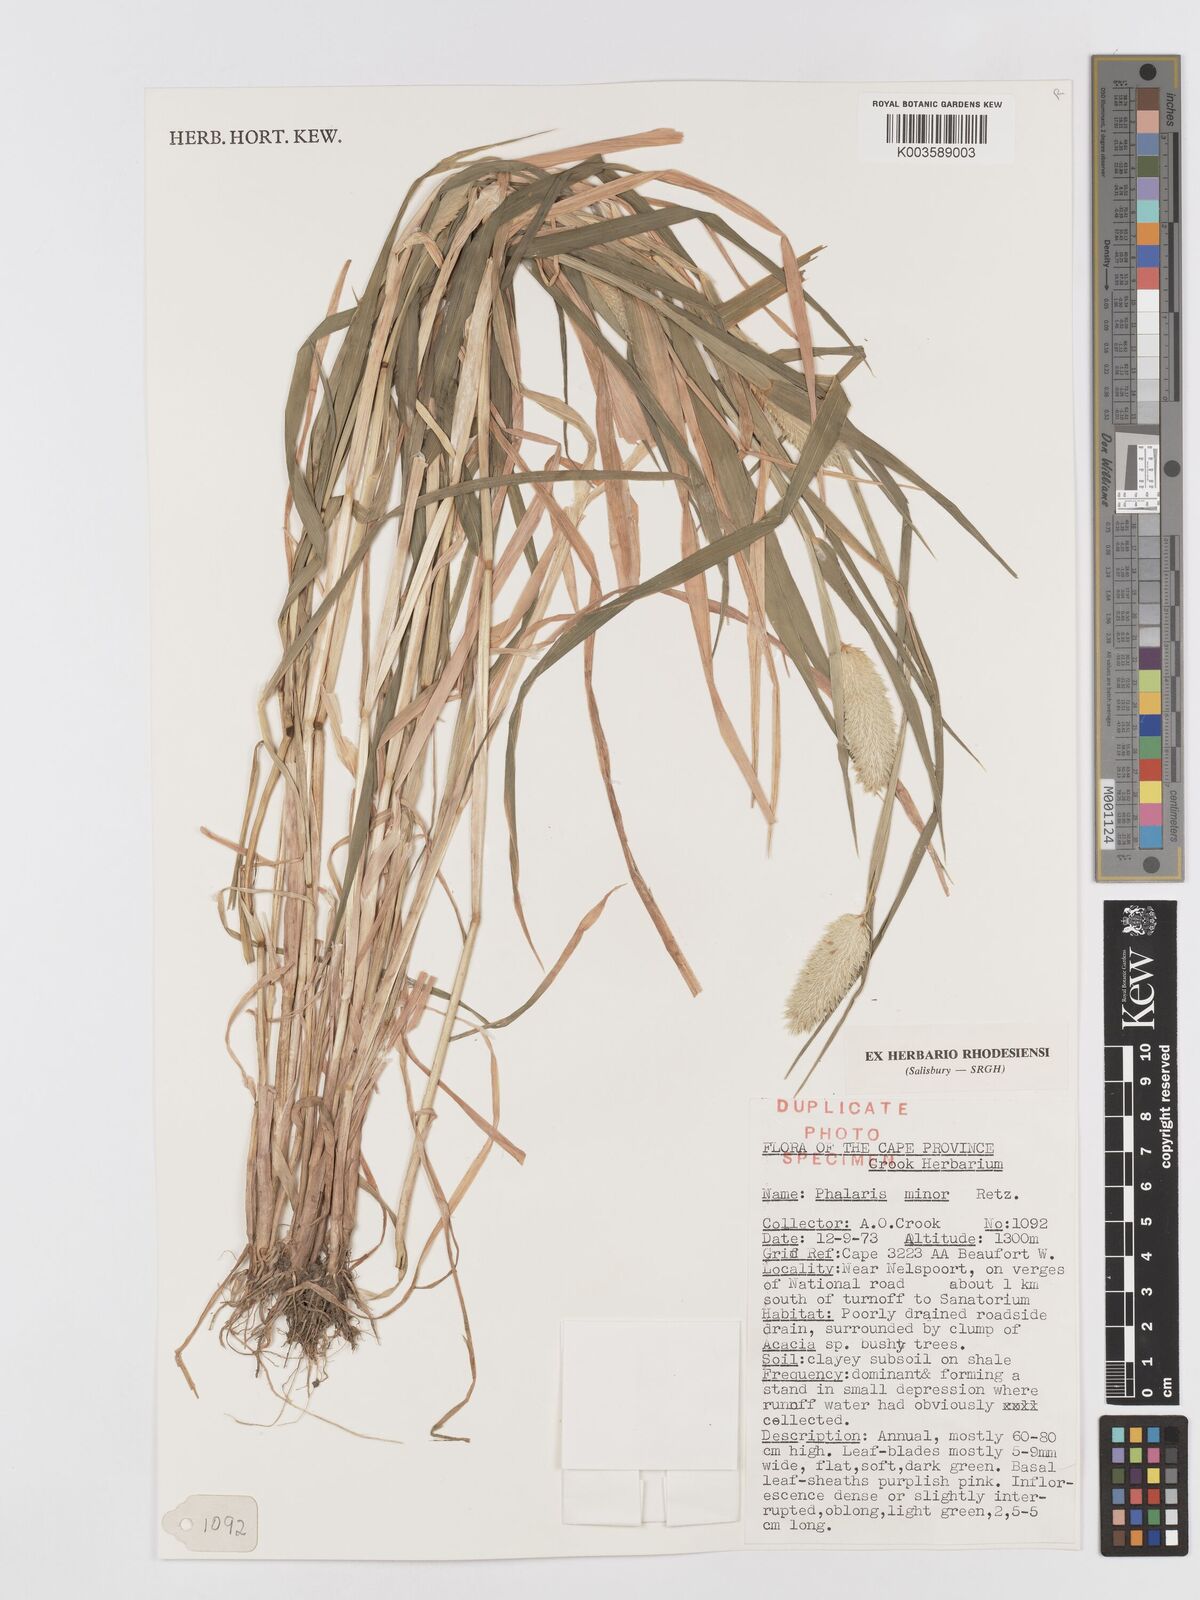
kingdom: Plantae
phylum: Tracheophyta
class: Liliopsida
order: Poales
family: Poaceae
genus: Phalaris
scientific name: Phalaris minor
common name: Littleseed canarygrass
